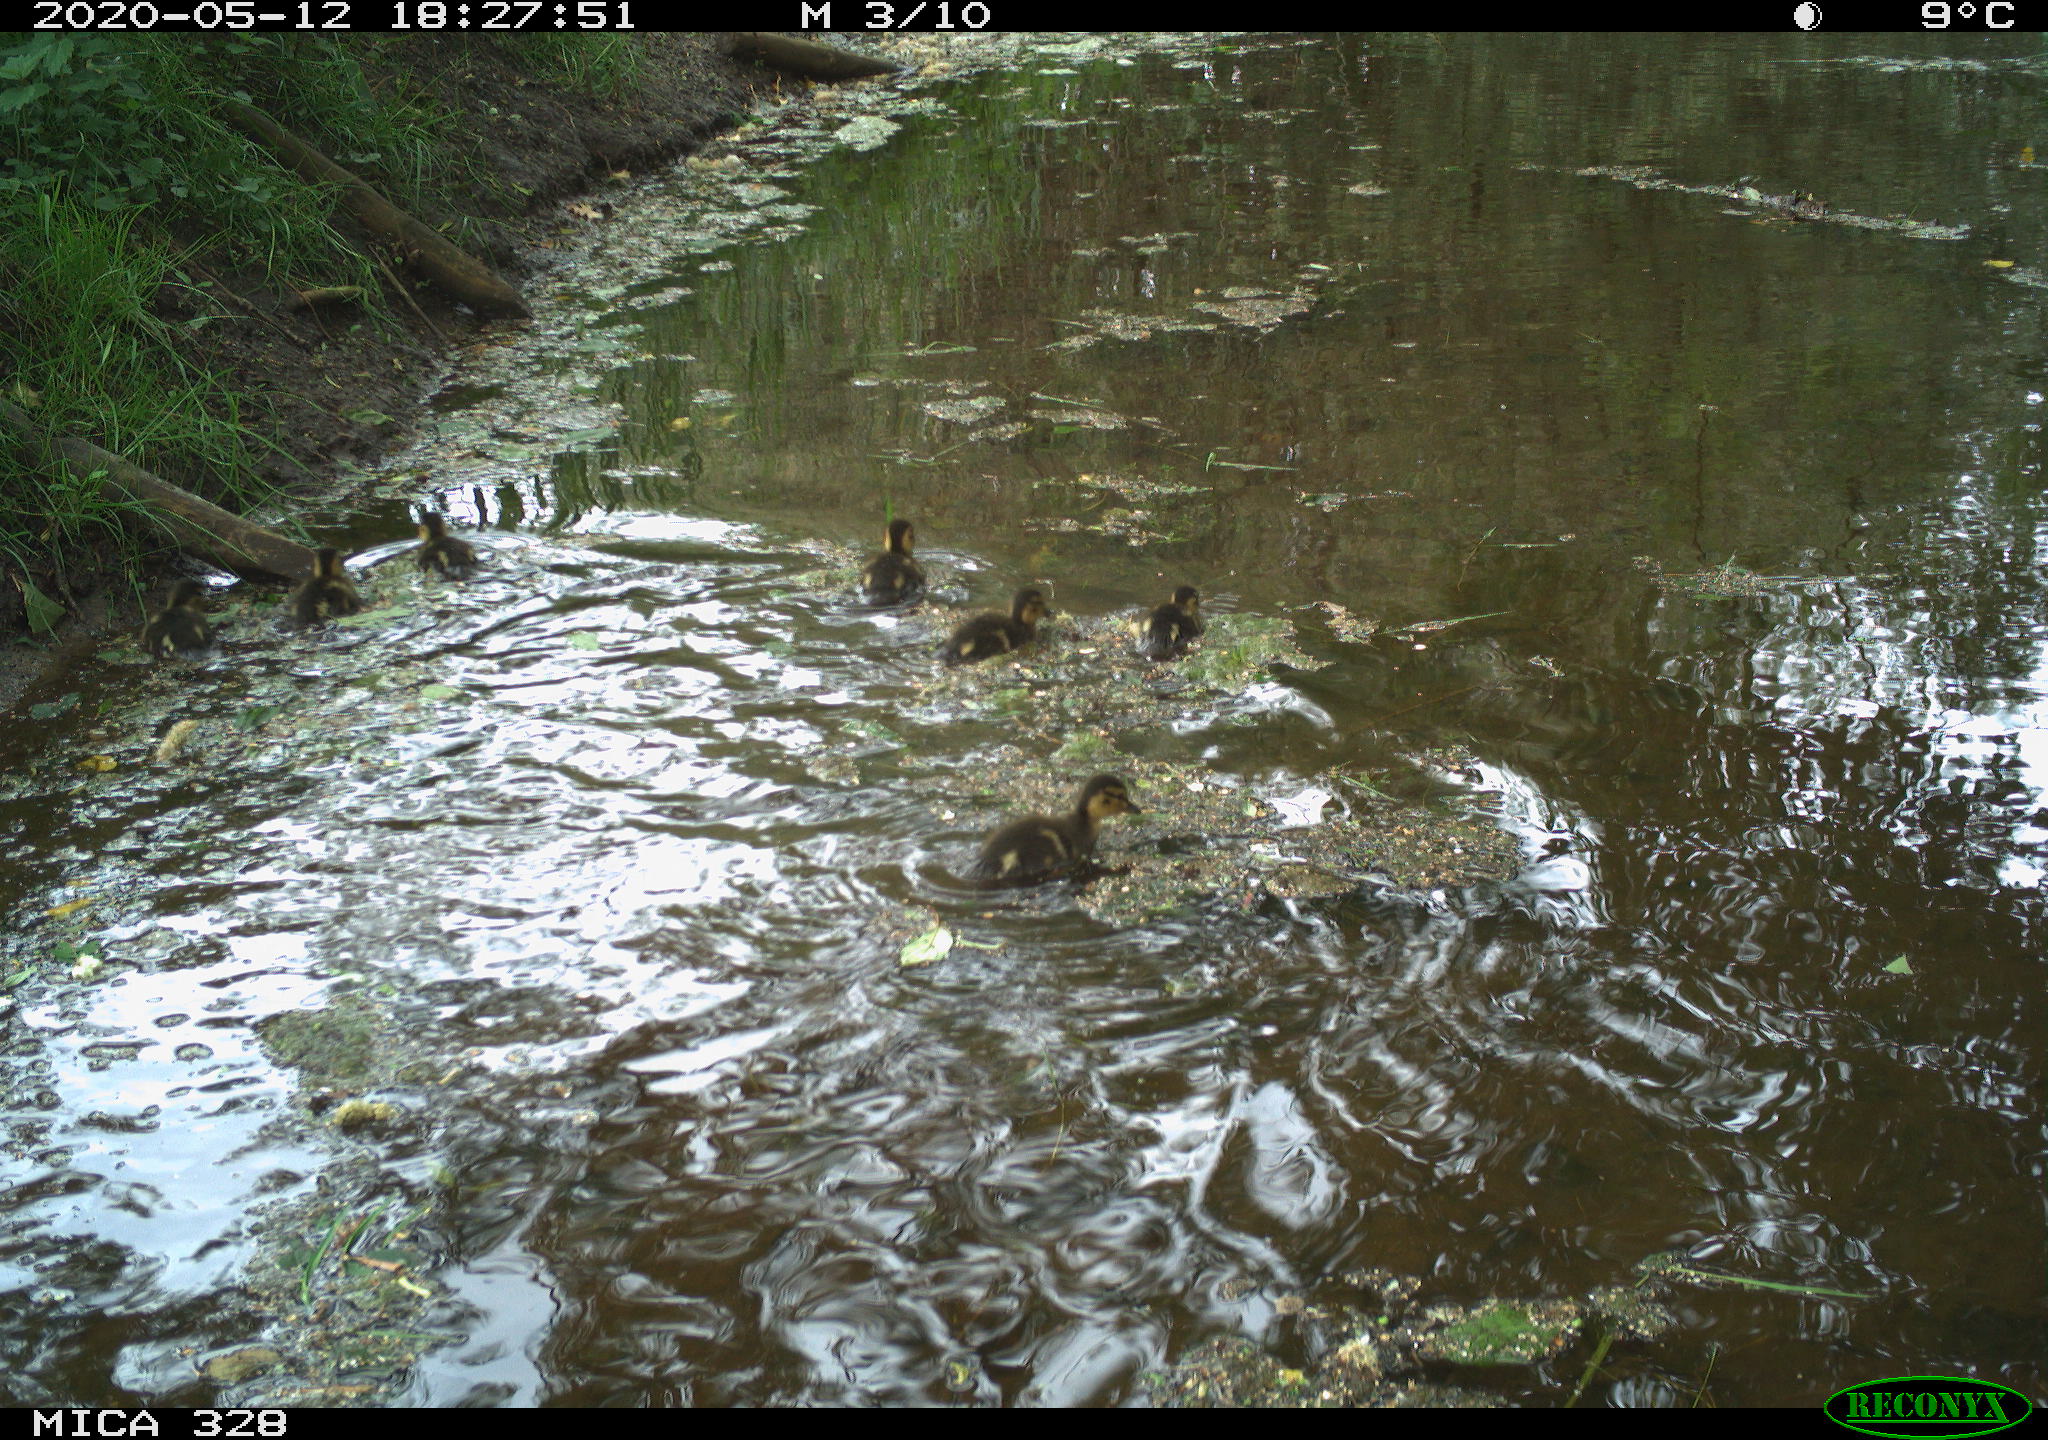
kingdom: Animalia
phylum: Chordata
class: Aves
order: Anseriformes
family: Anatidae
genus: Anas
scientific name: Anas platyrhynchos
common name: Mallard
